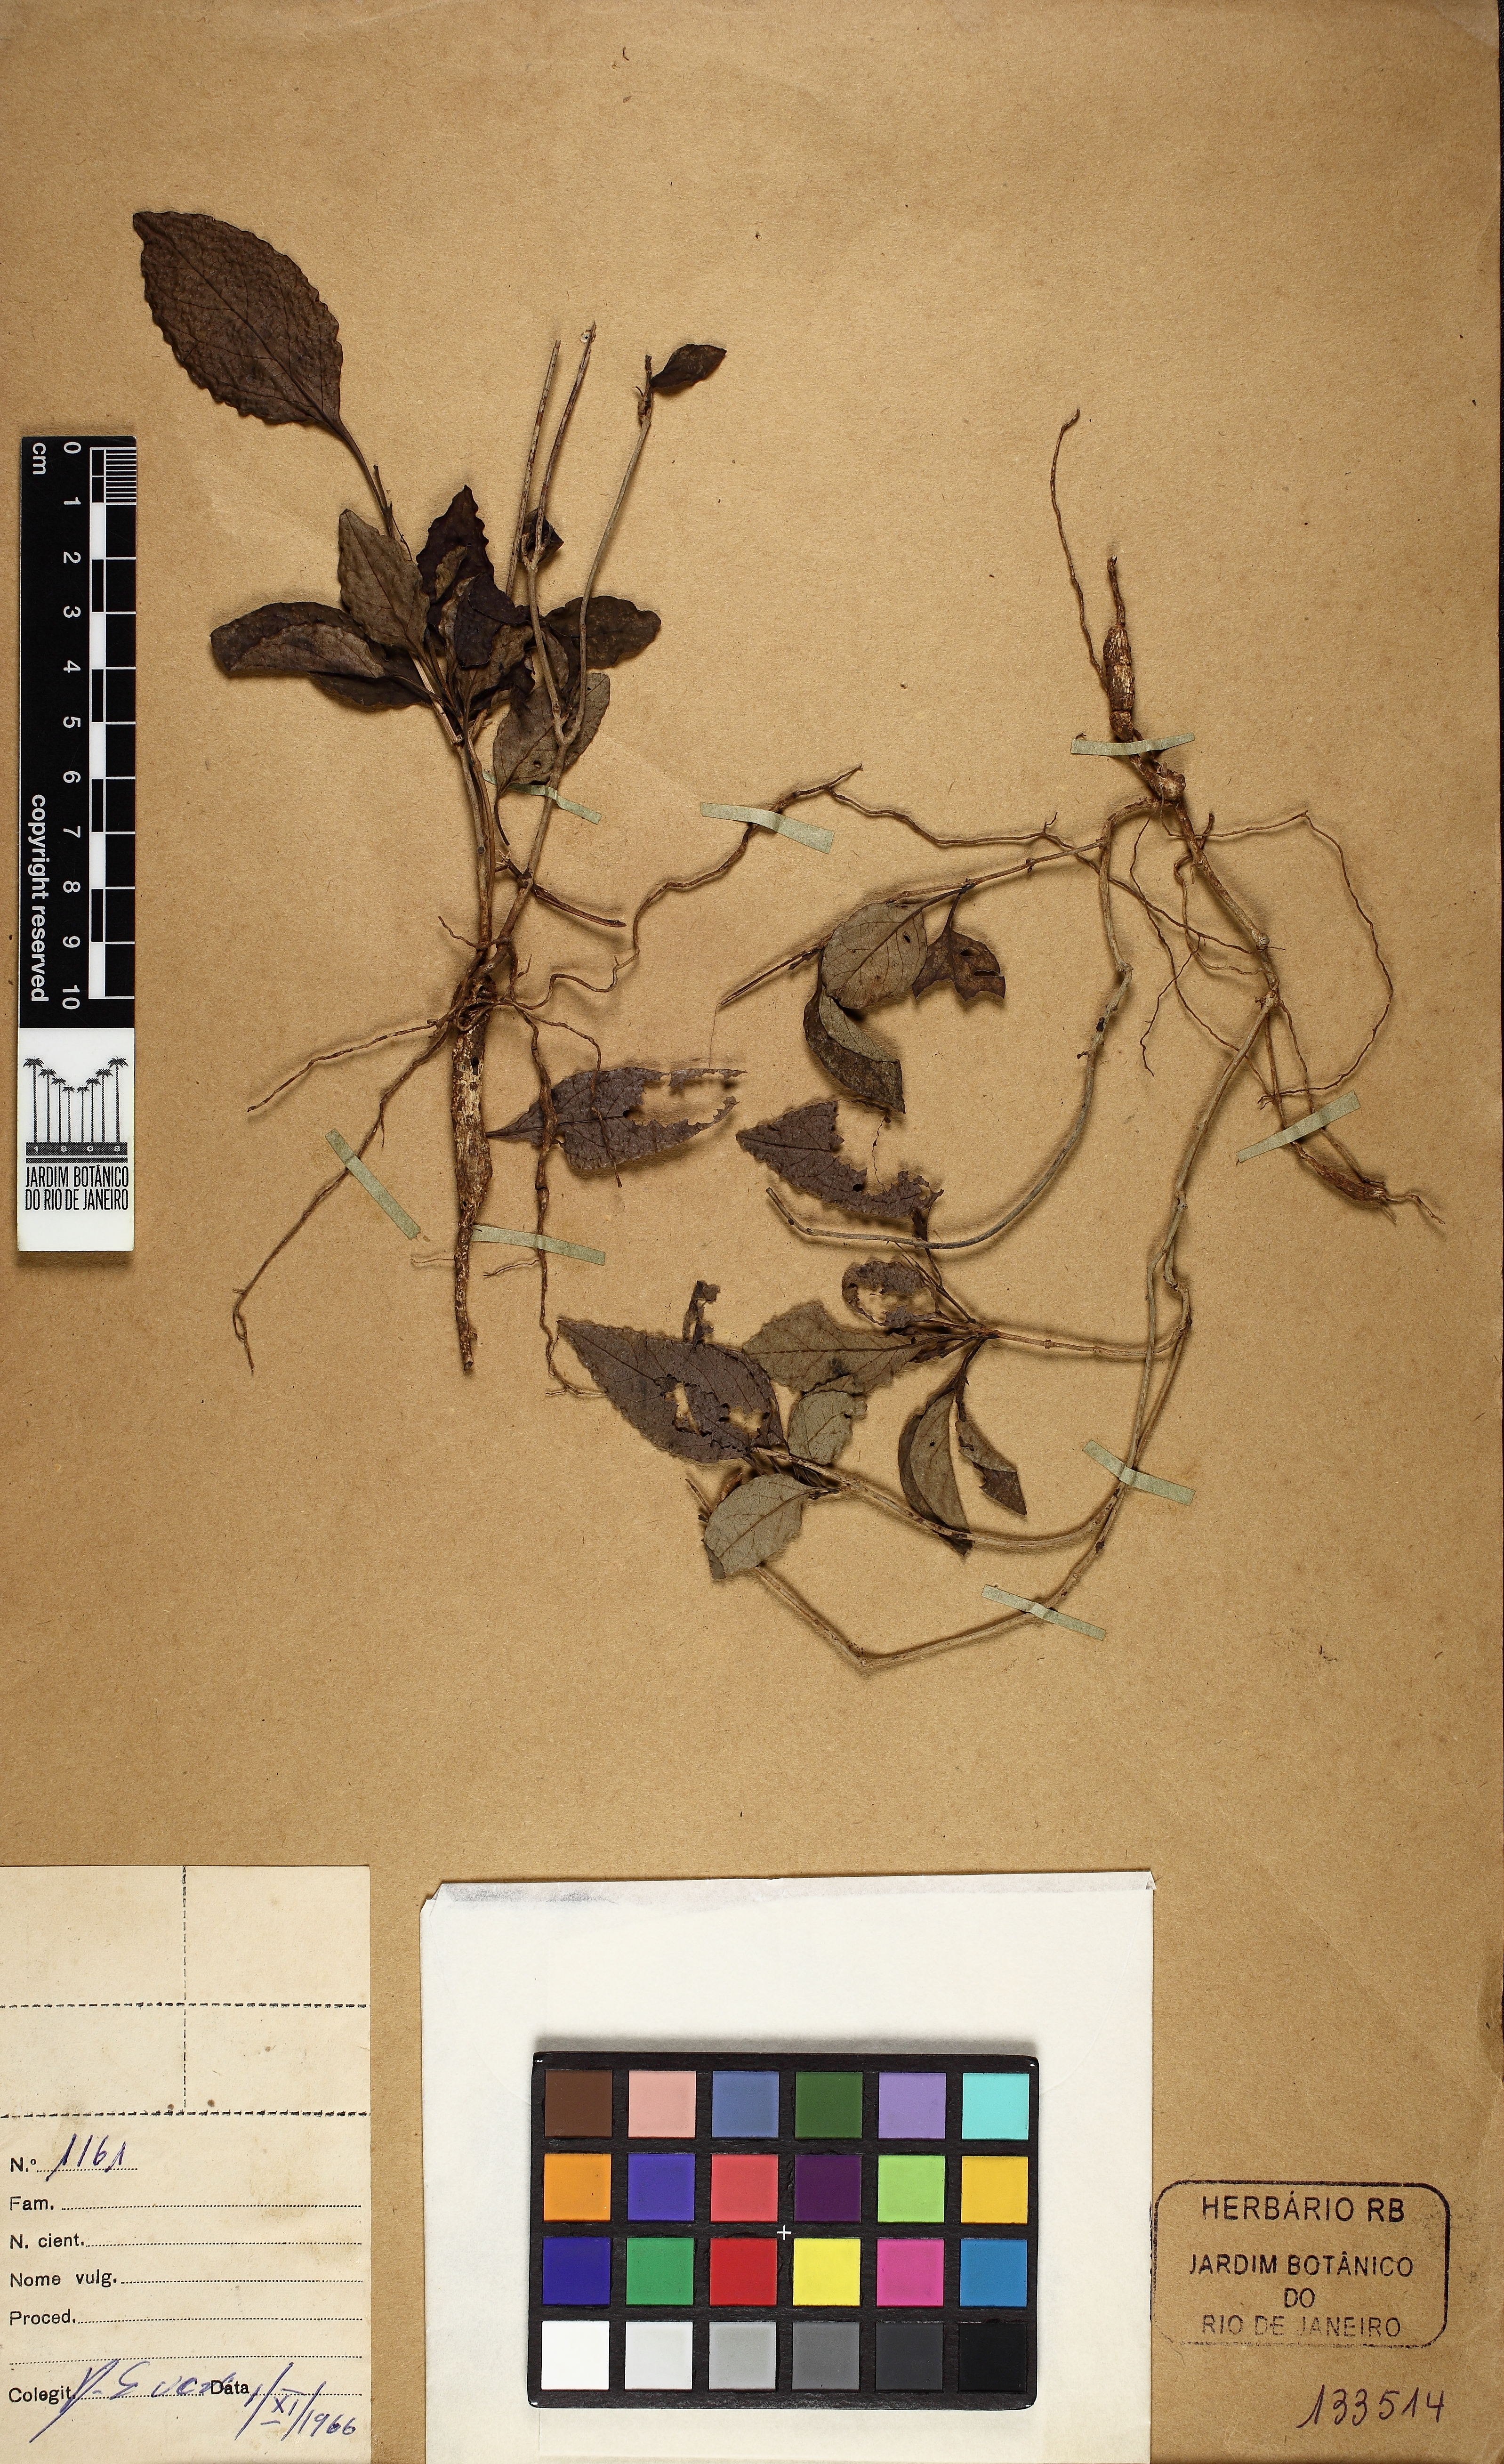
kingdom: Plantae
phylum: Tracheophyta
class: Magnoliopsida
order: Lamiales
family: Verbenaceae
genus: Casselia
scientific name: Casselia integrifolia
